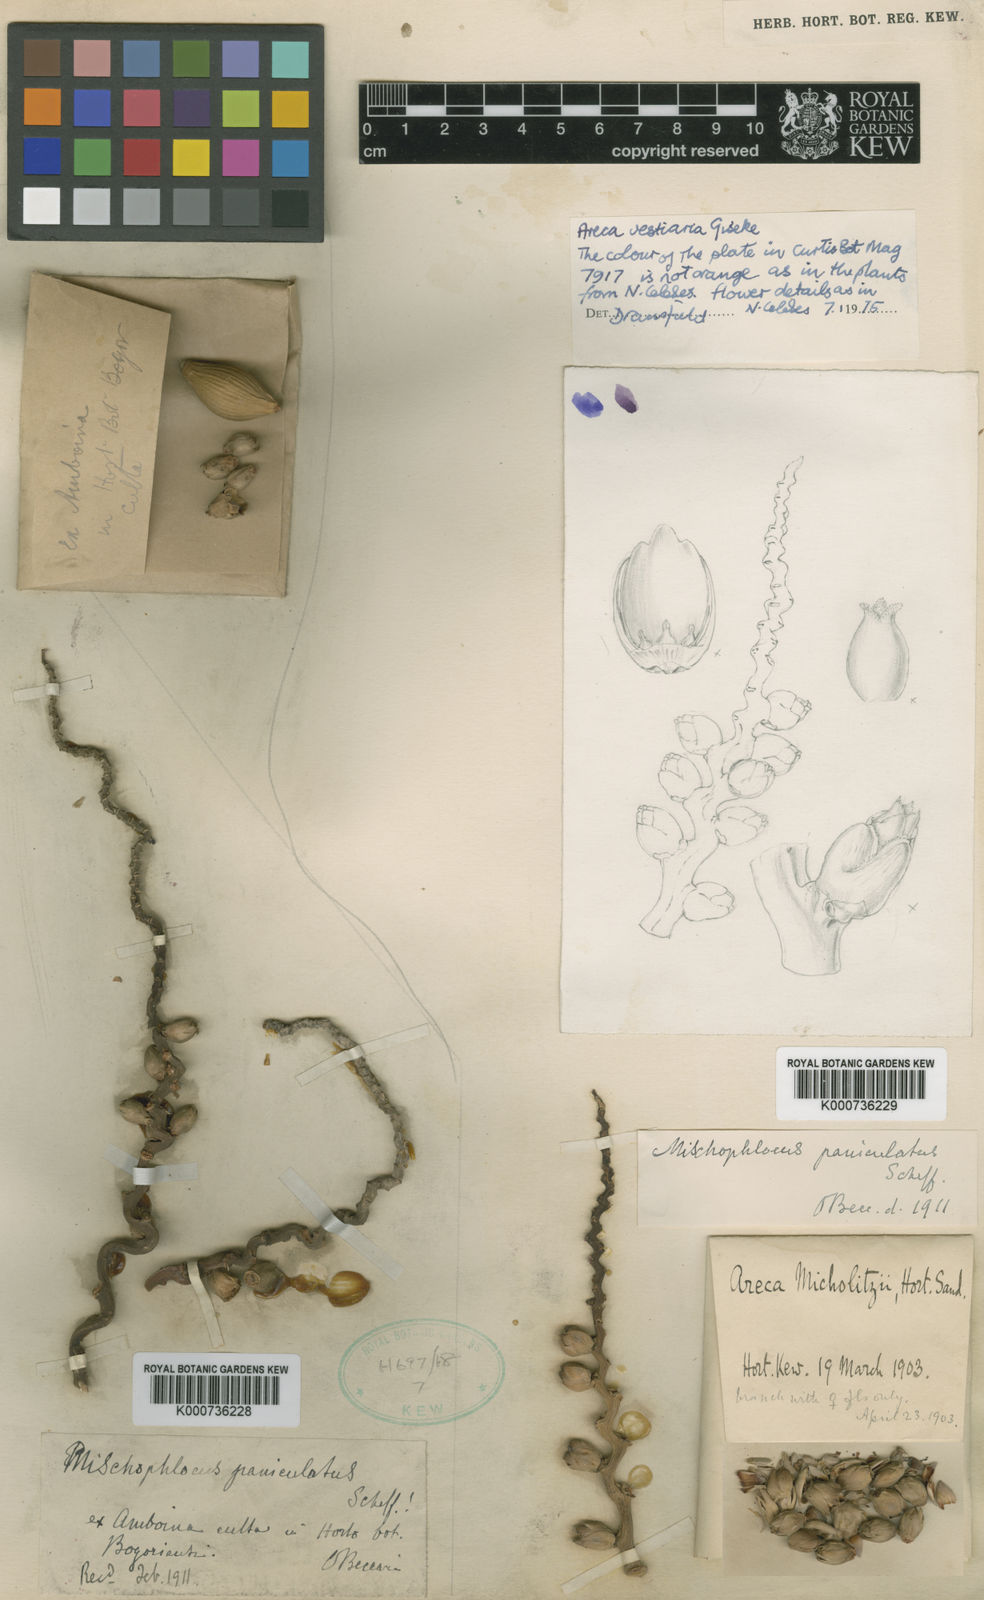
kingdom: Plantae
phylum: Tracheophyta
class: Liliopsida
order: Arecales
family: Arecaceae
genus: Areca
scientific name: Areca vestiaria
